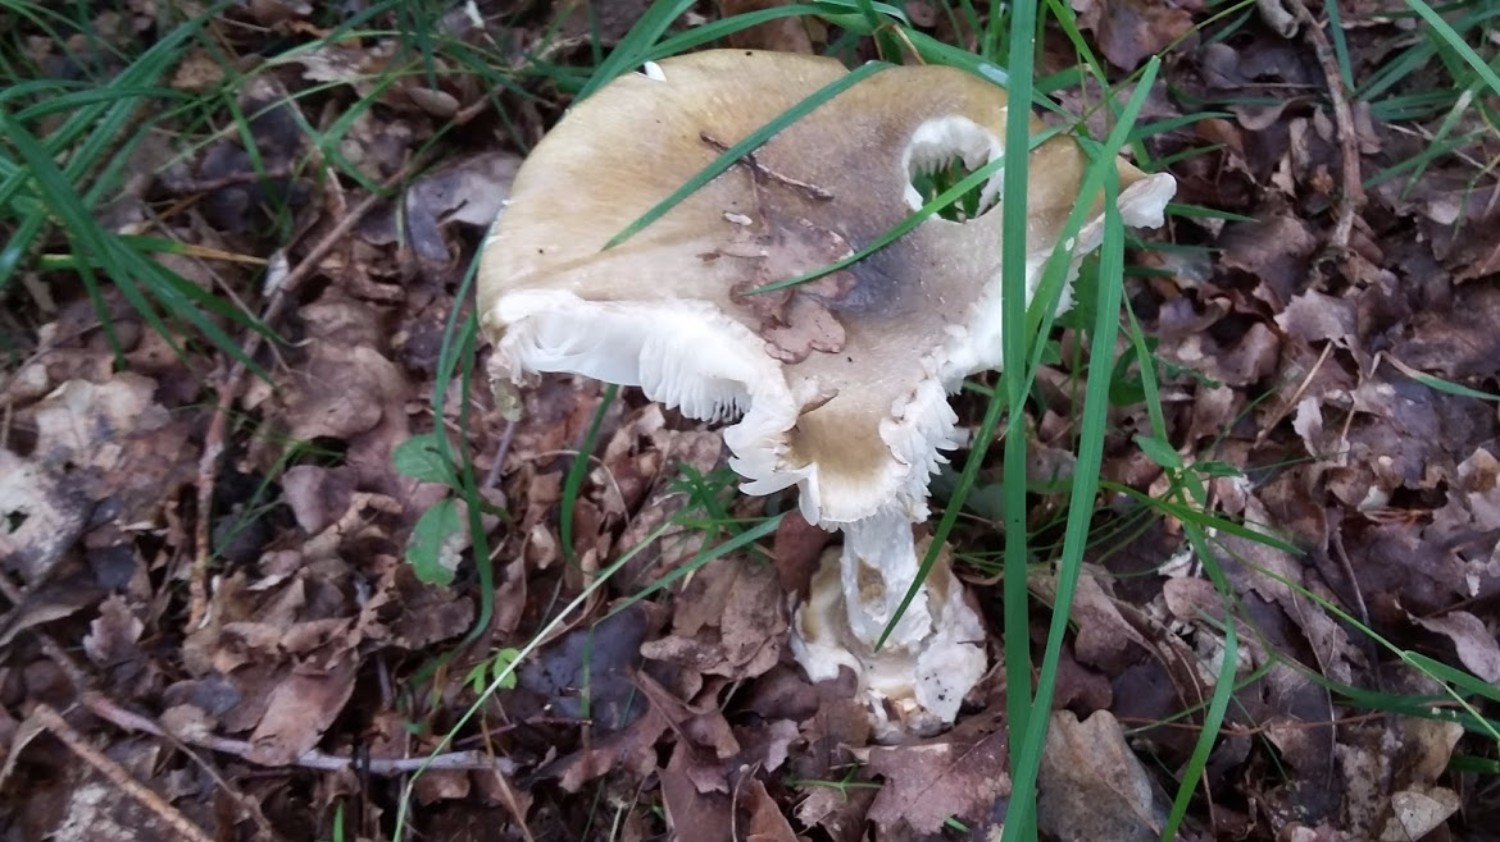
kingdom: Fungi
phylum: Basidiomycota
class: Agaricomycetes
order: Agaricales
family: Amanitaceae
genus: Amanita
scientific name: Amanita phalloides
